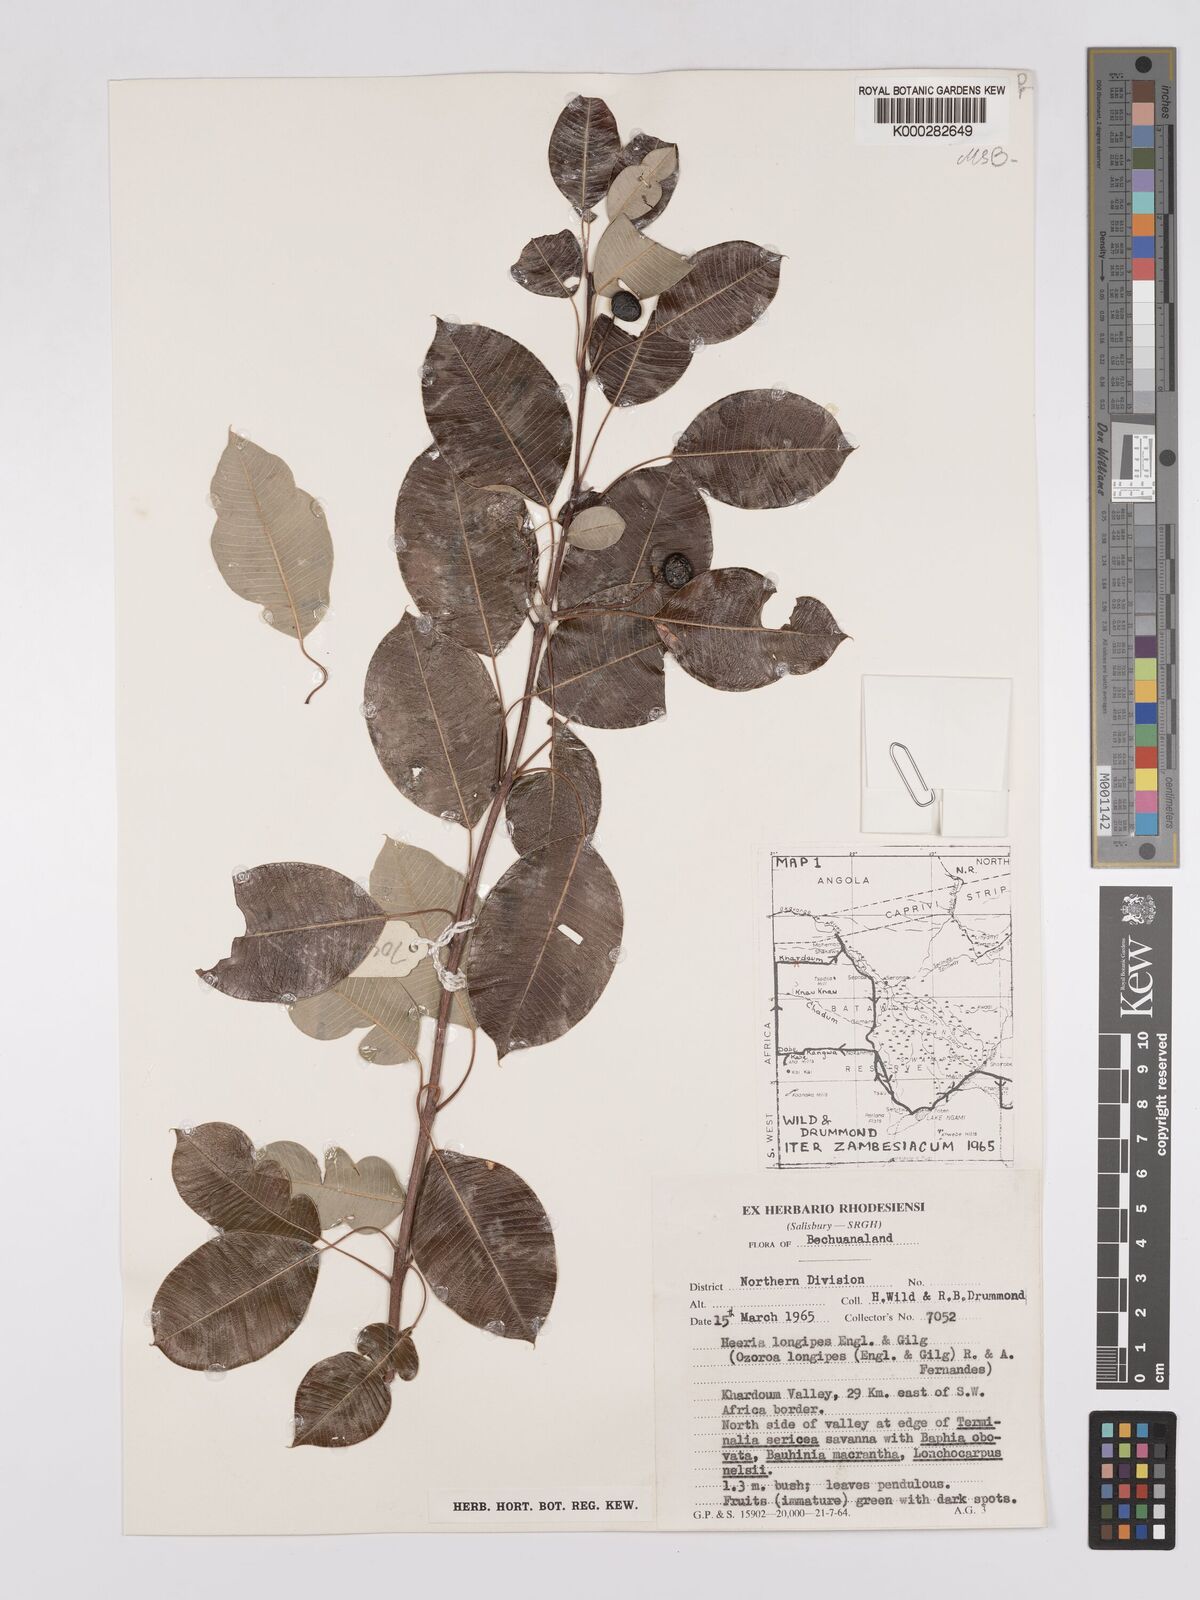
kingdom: Plantae
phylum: Tracheophyta
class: Magnoliopsida
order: Sapindales
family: Anacardiaceae
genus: Ozoroa
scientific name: Ozoroa longipes
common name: Round-leaved resin tree
